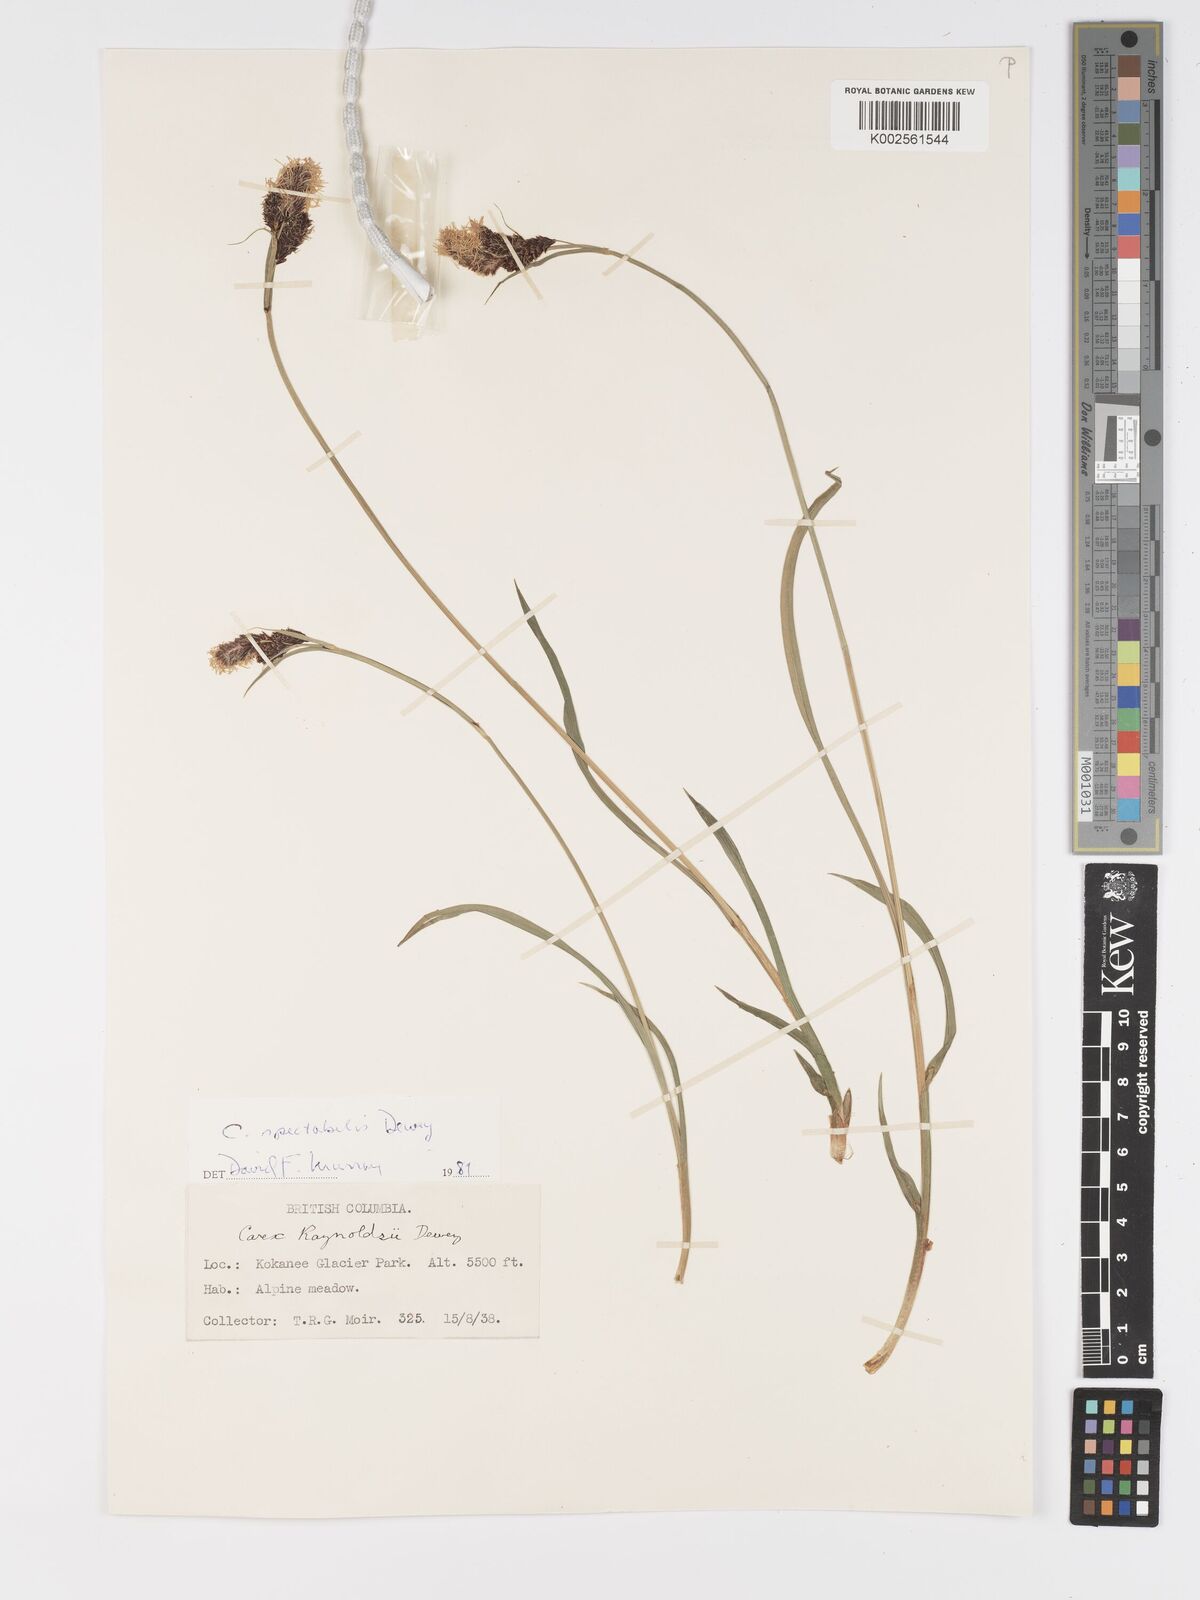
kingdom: Plantae
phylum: Tracheophyta
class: Liliopsida
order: Poales
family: Cyperaceae
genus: Carex
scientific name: Carex spectabilis
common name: Northwestern showy sedge
